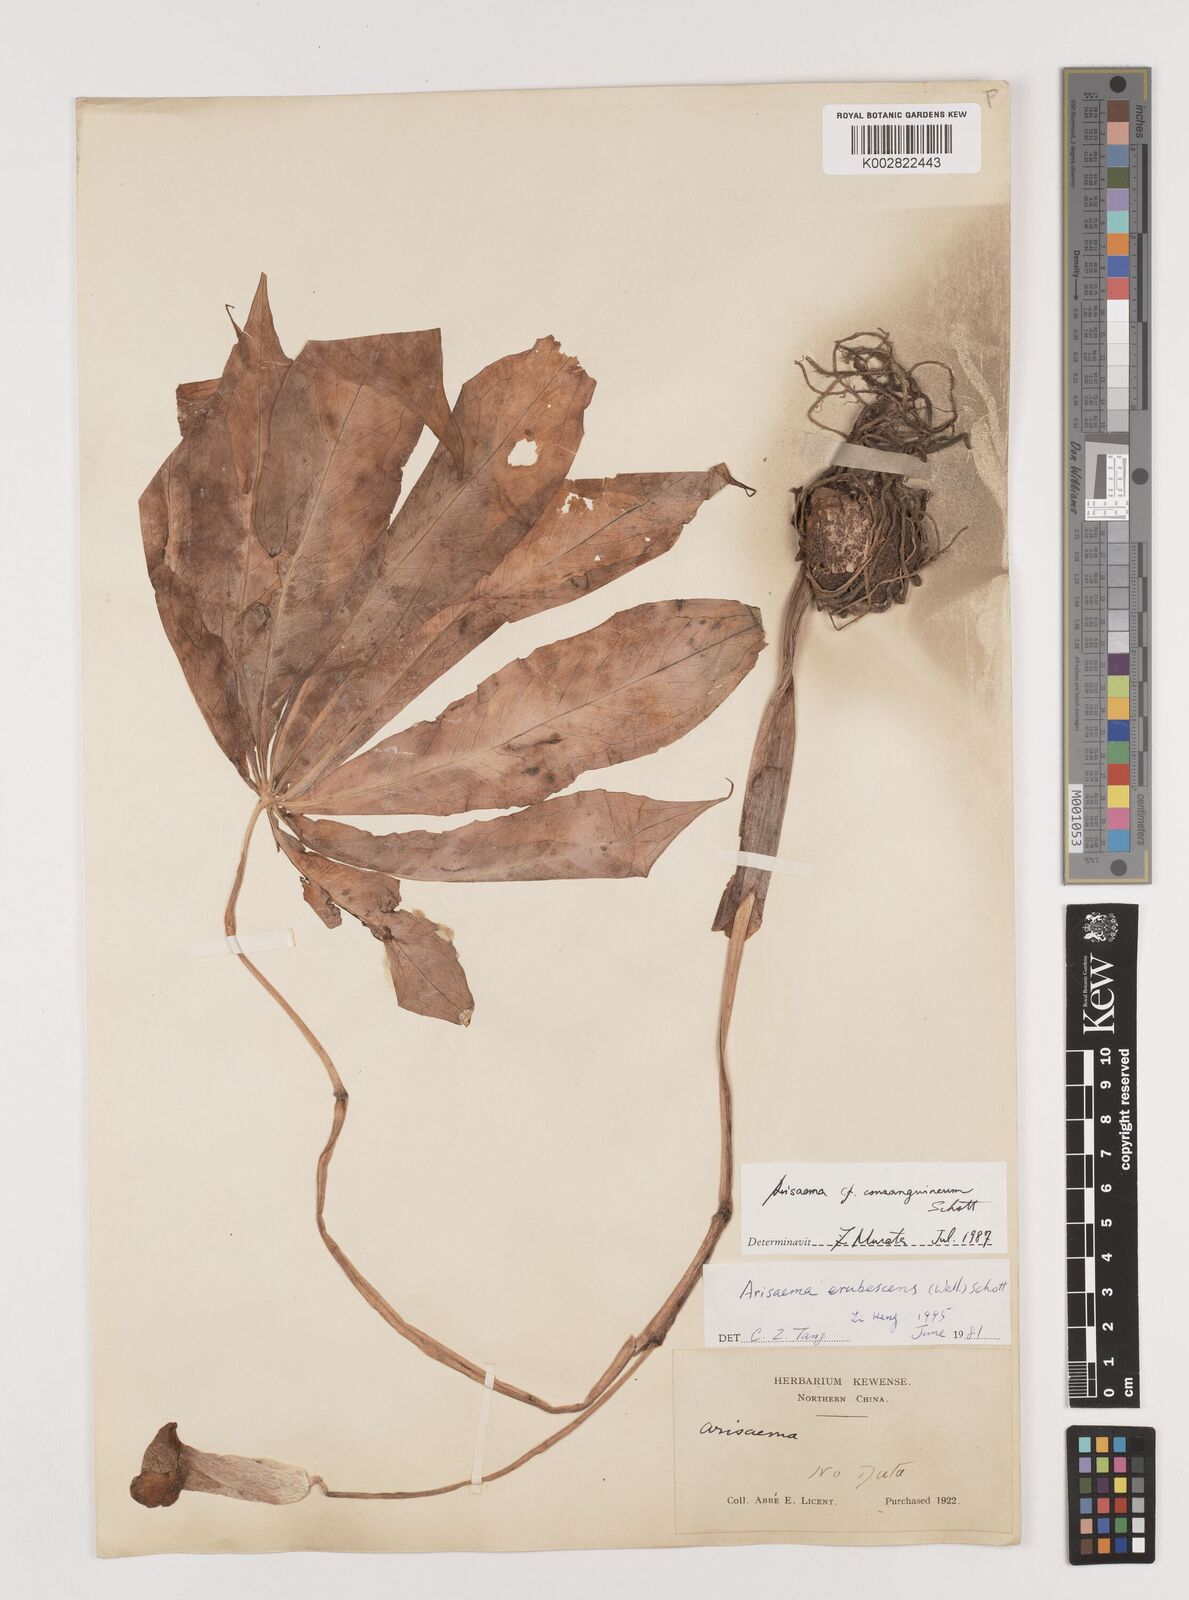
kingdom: Plantae
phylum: Tracheophyta
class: Liliopsida
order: Alismatales
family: Araceae
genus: Arisaema
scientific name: Arisaema erubescens
